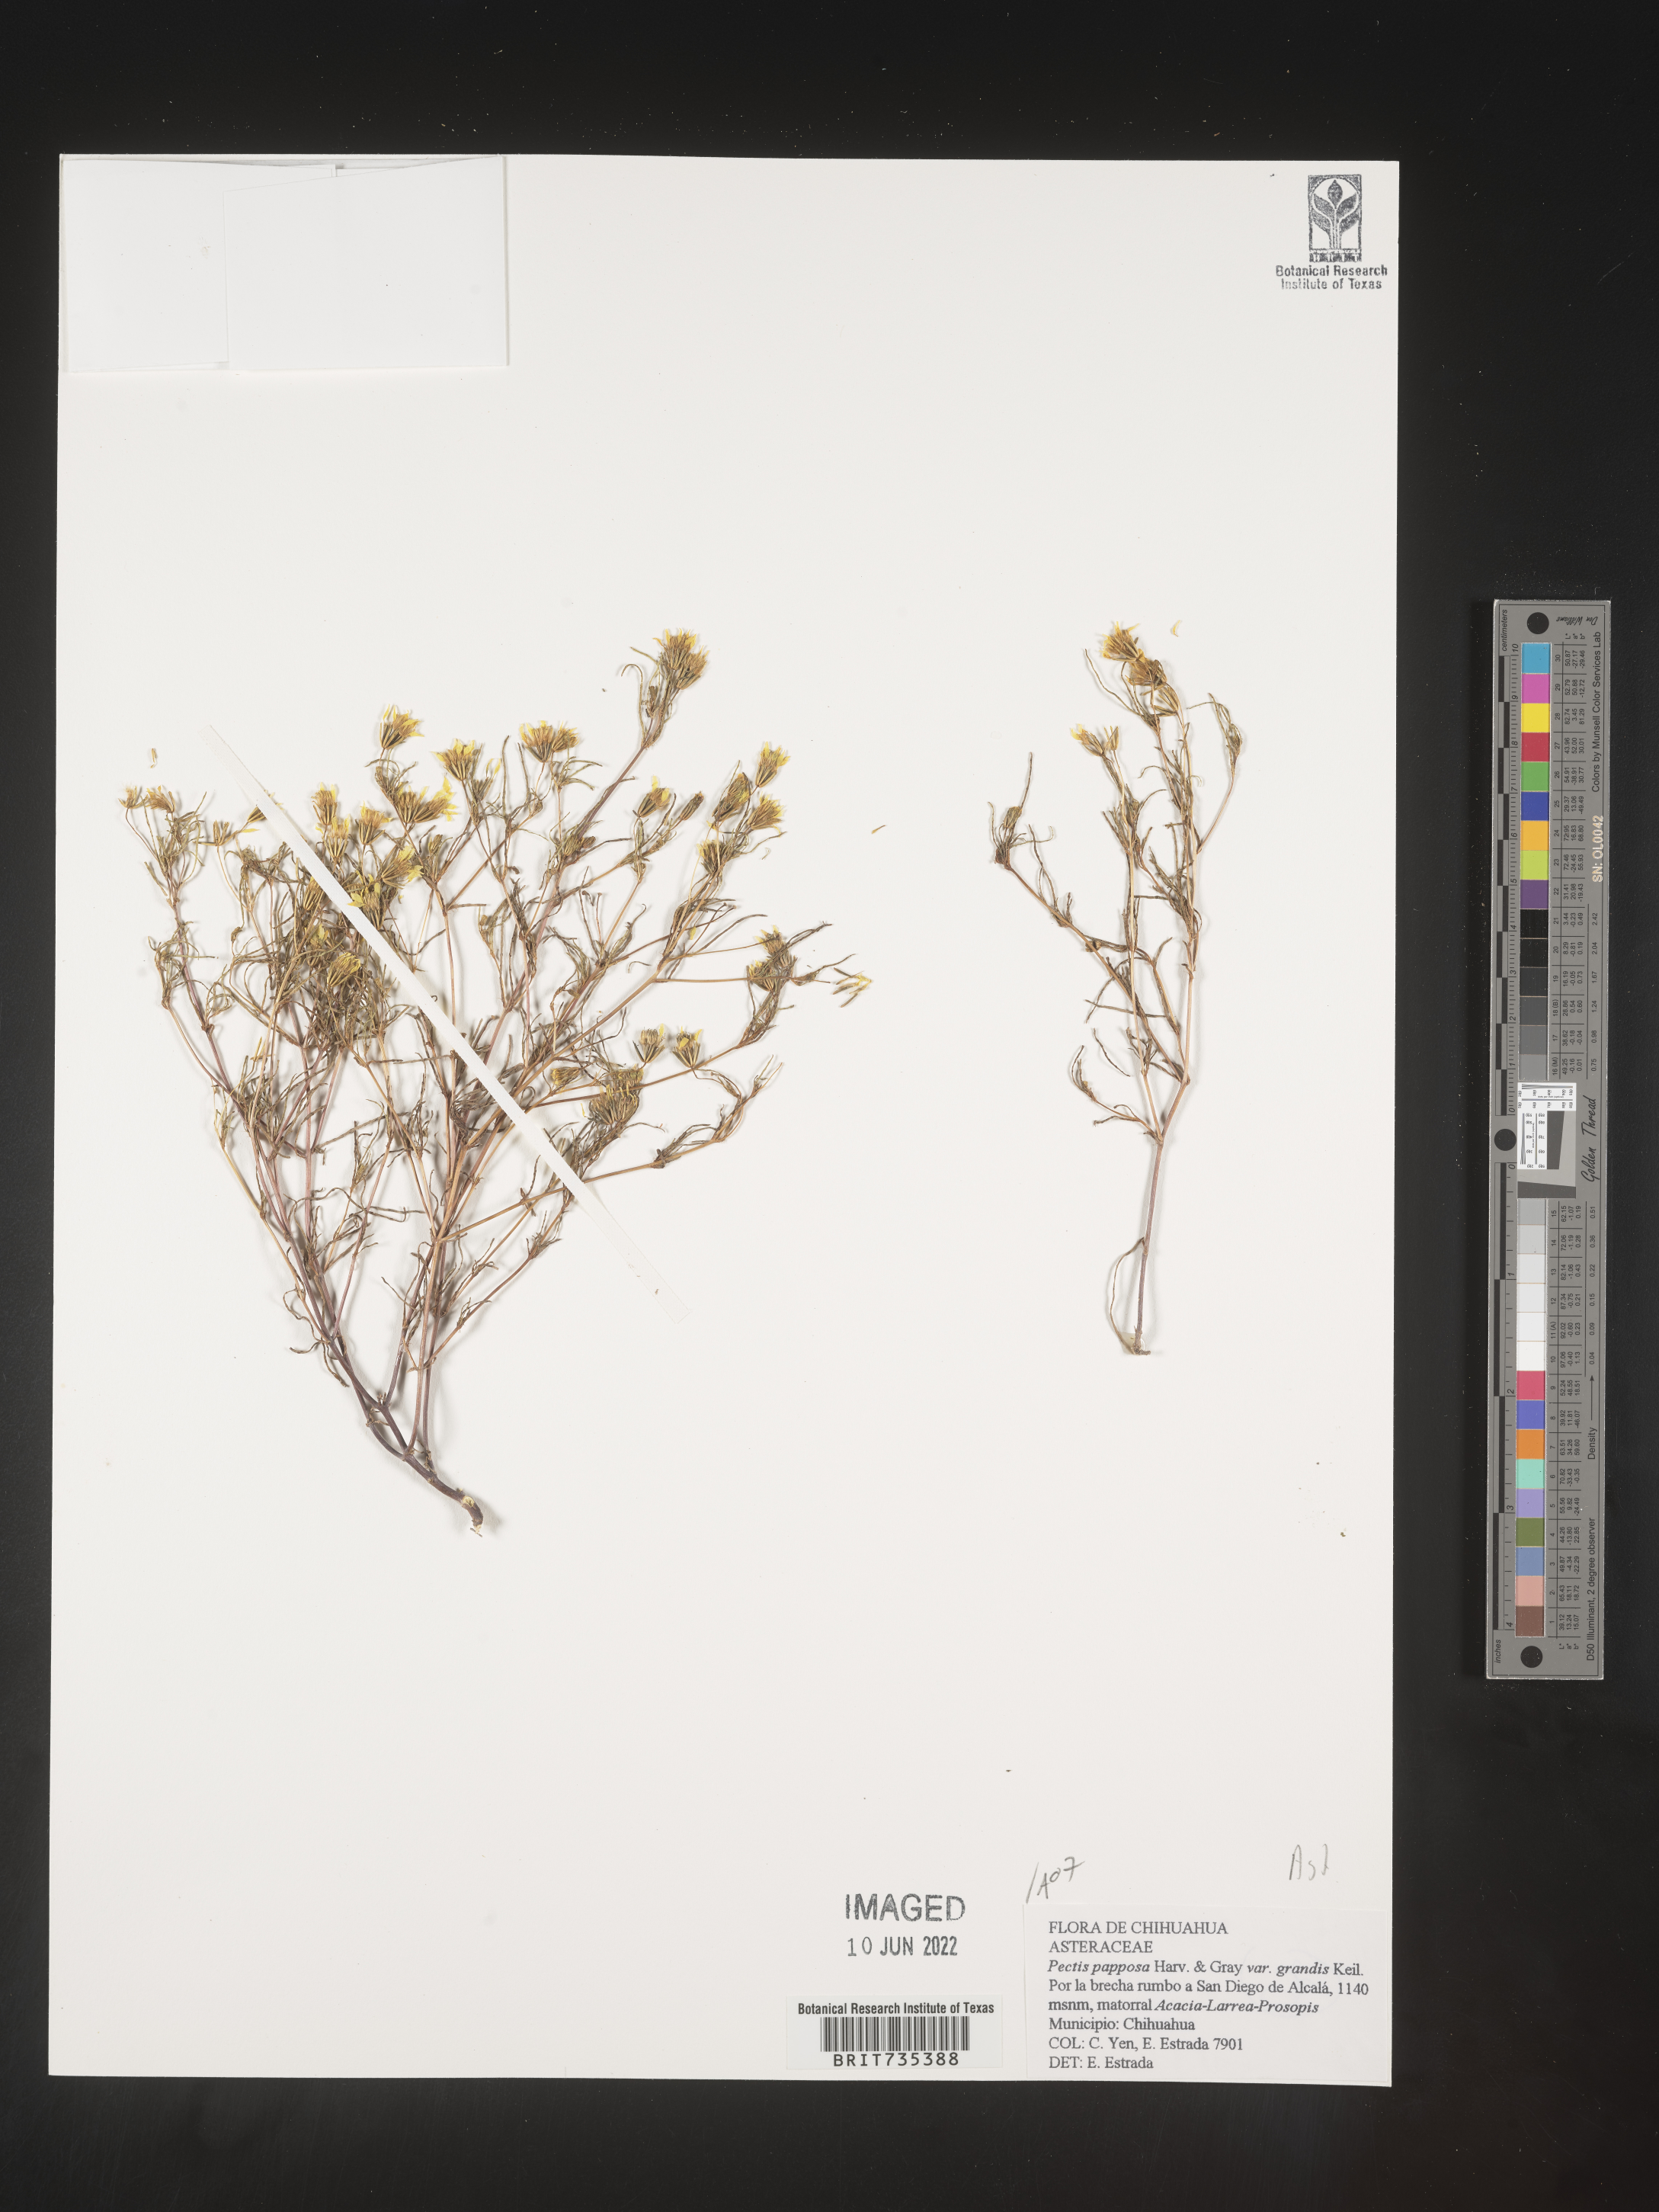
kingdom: Plantae
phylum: Tracheophyta
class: Magnoliopsida
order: Asterales
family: Asteraceae
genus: Pectis
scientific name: Pectis
